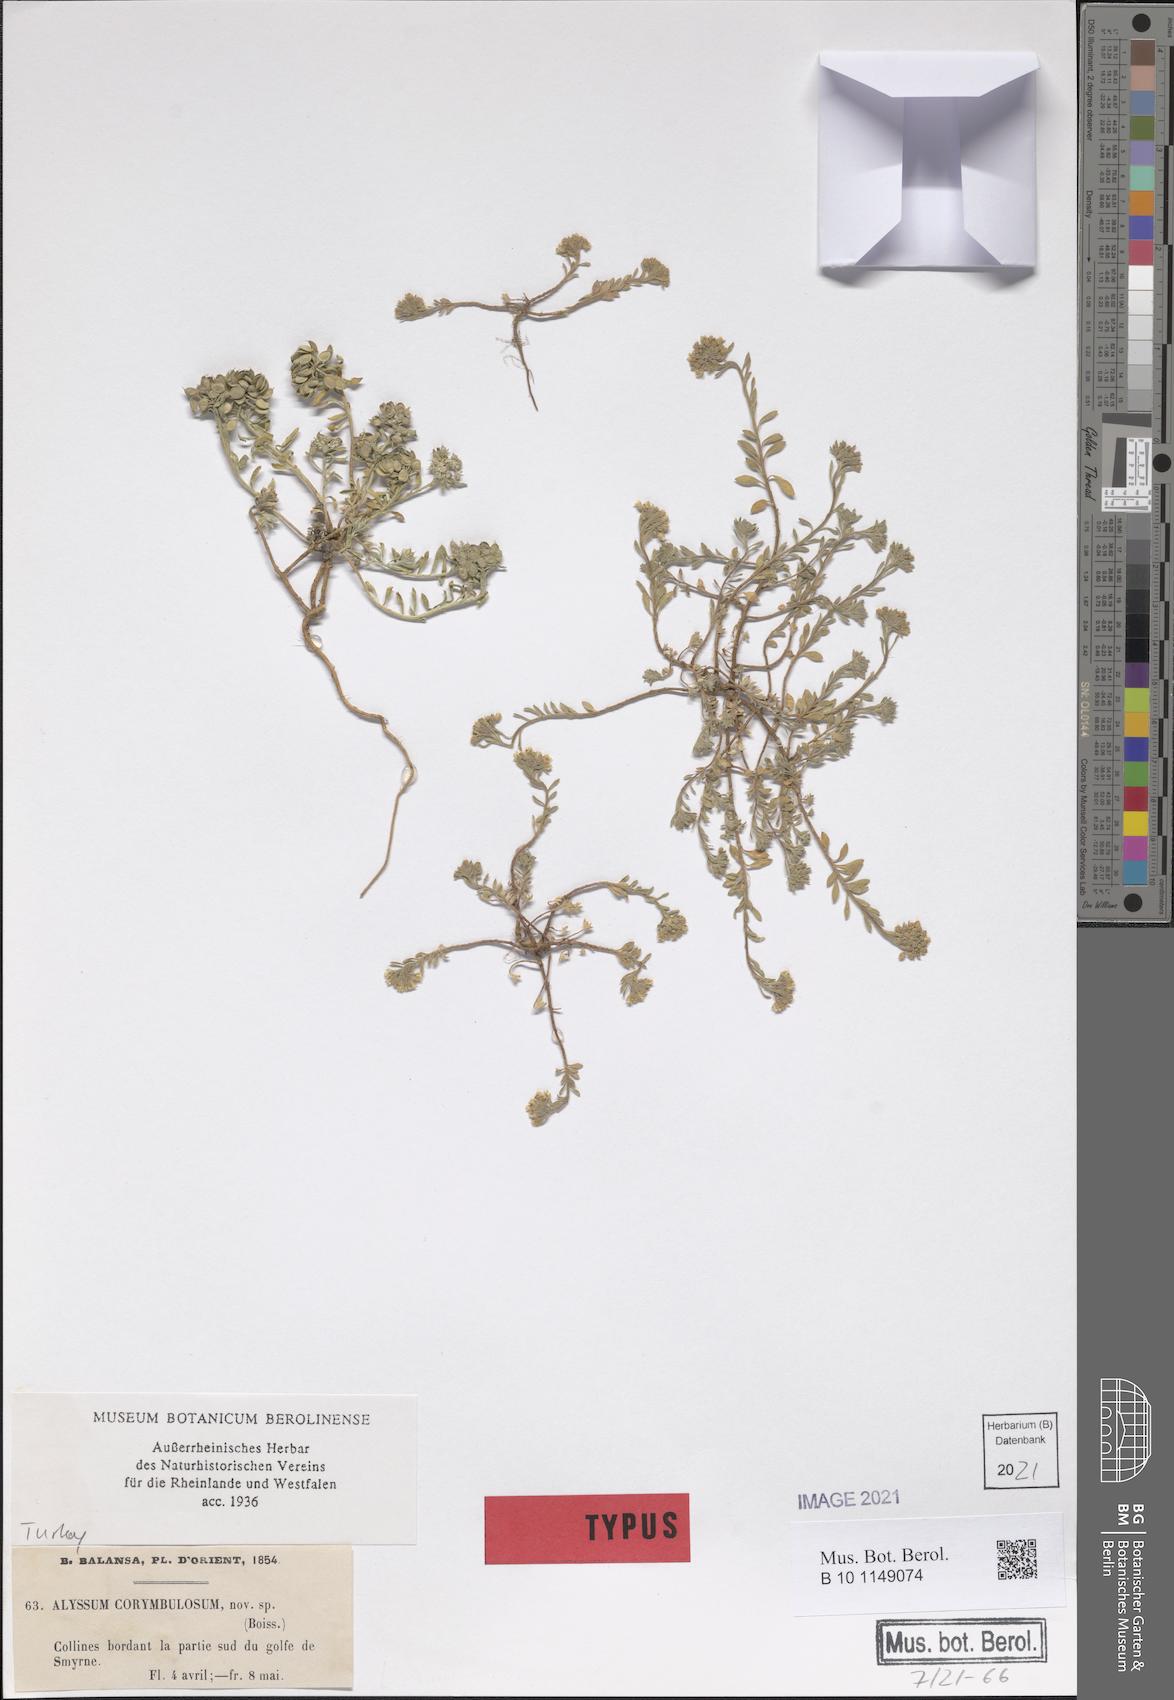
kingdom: Plantae
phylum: Tracheophyta
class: Magnoliopsida
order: Brassicales
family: Brassicaceae
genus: Alyssum
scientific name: Alyssum umbellatum
